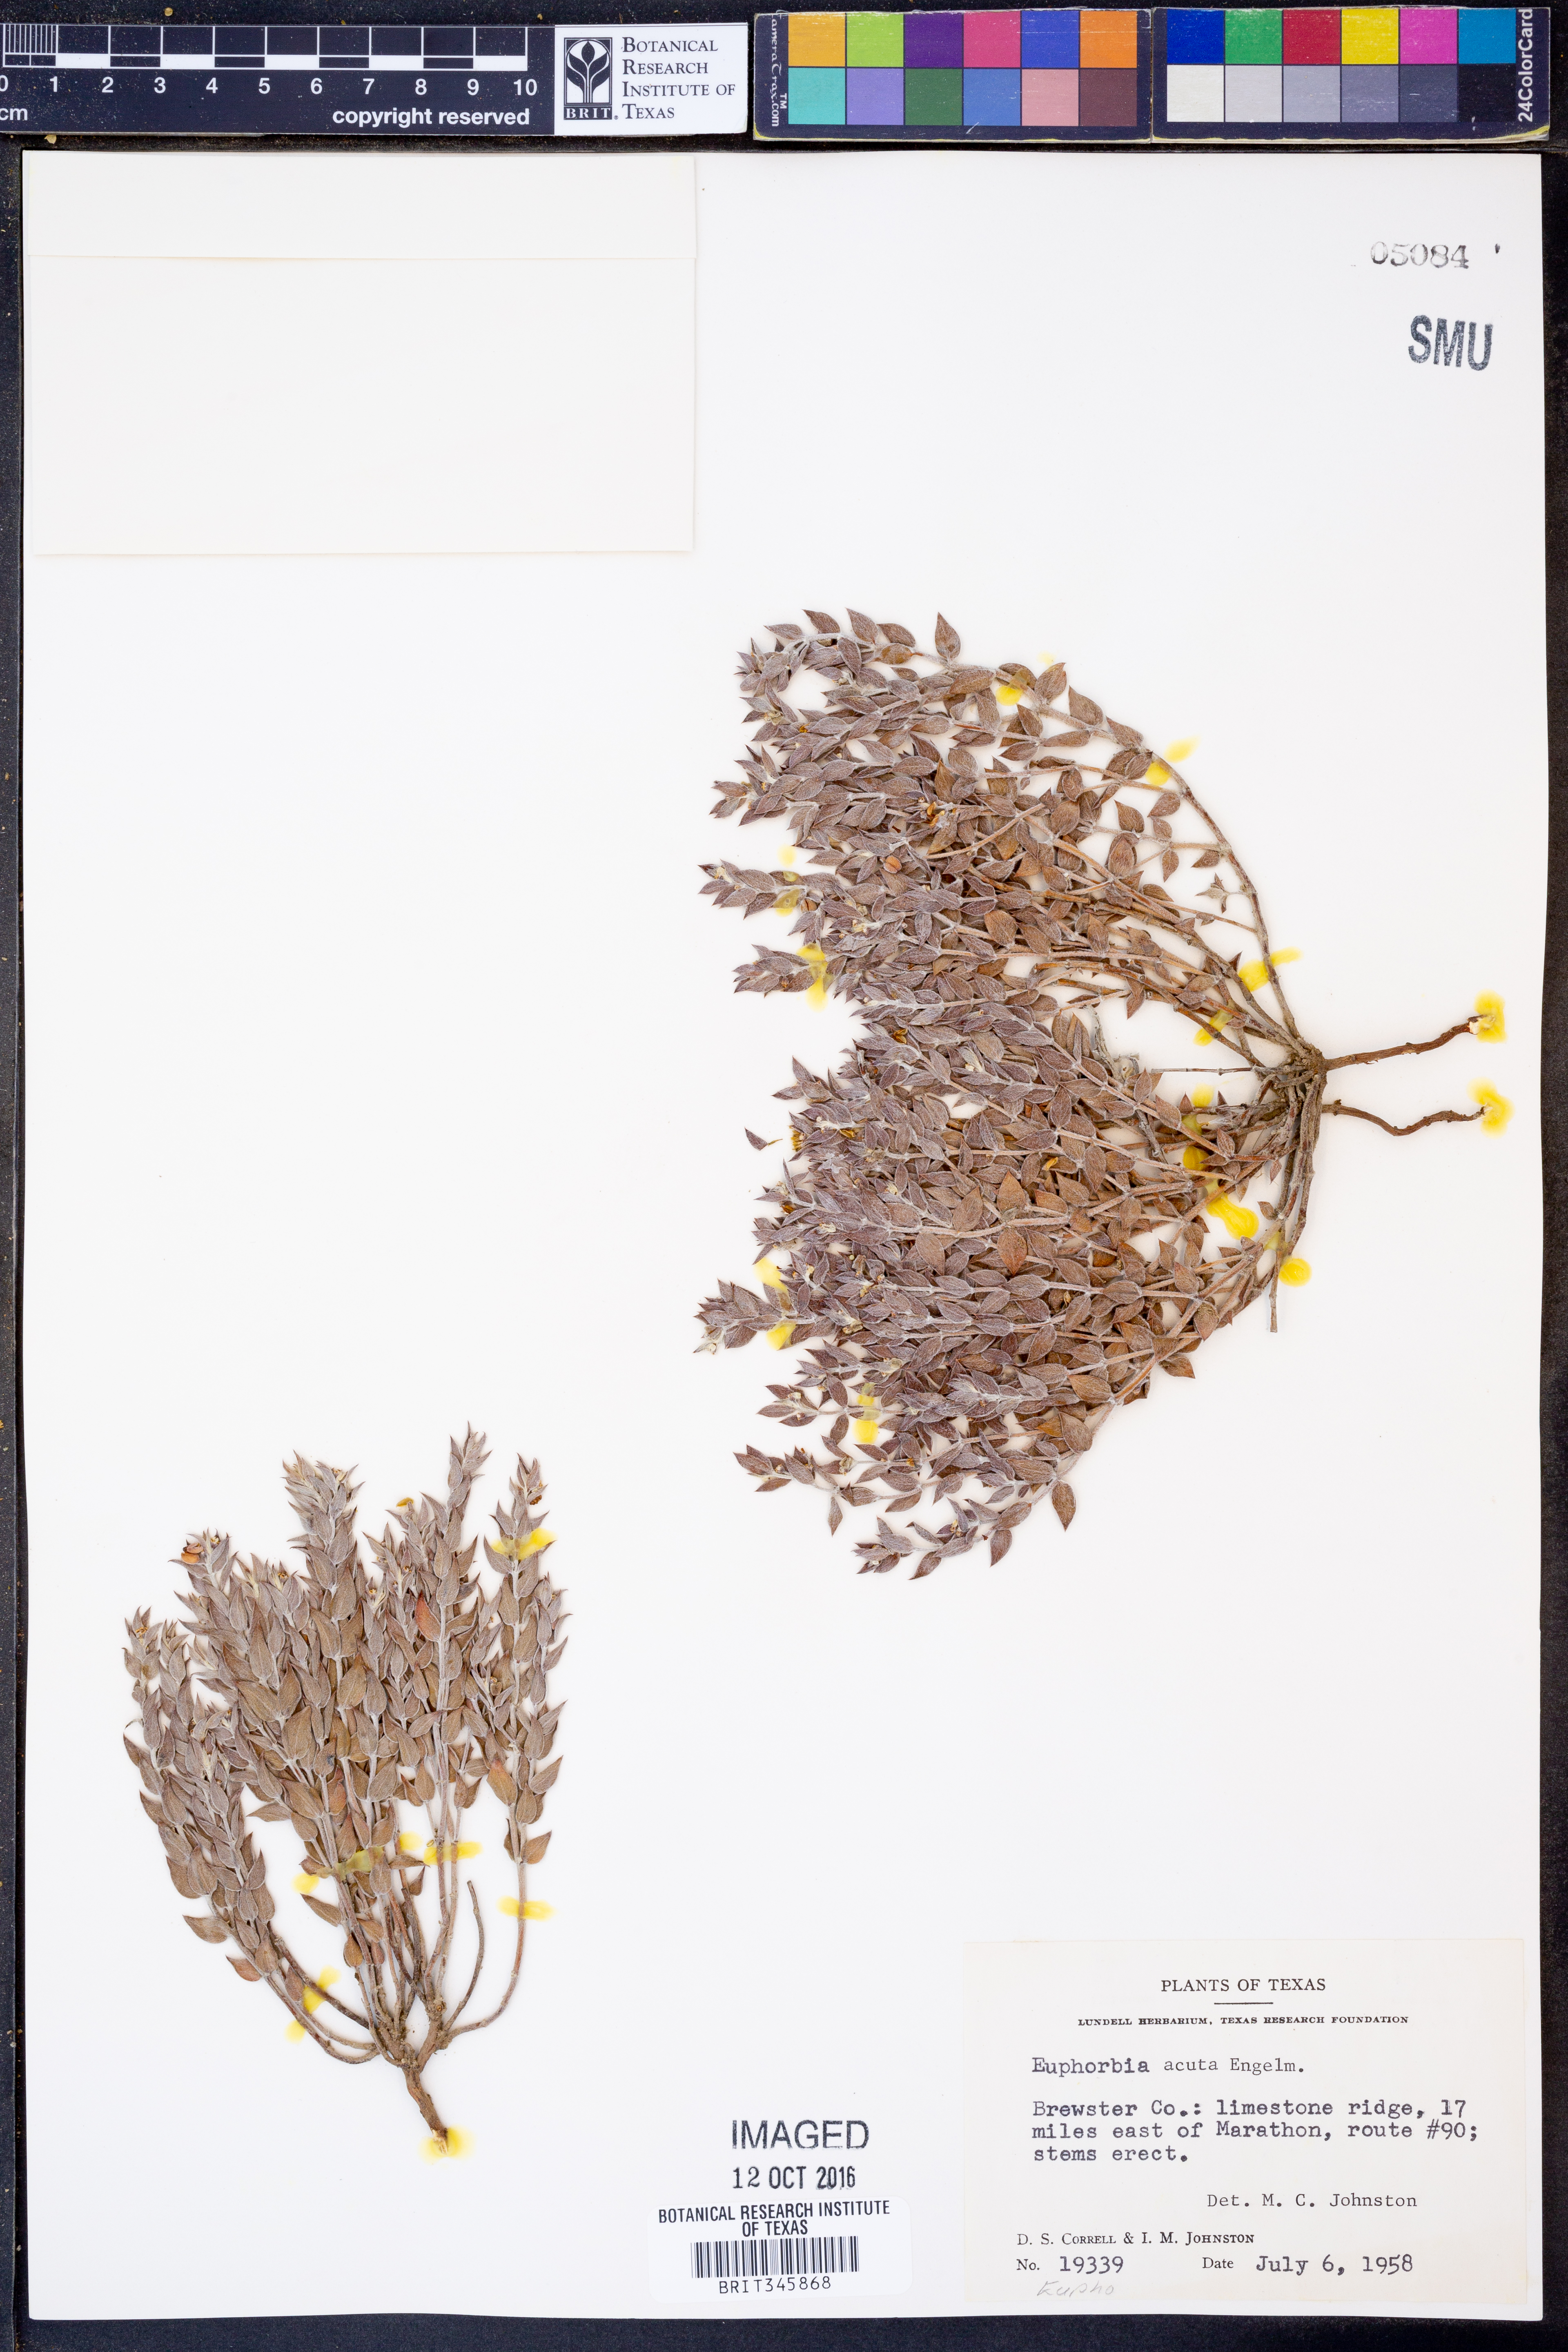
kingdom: Plantae
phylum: Tracheophyta
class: Magnoliopsida
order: Malpighiales
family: Euphorbiaceae
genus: Euphorbia
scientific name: Euphorbia acuta
